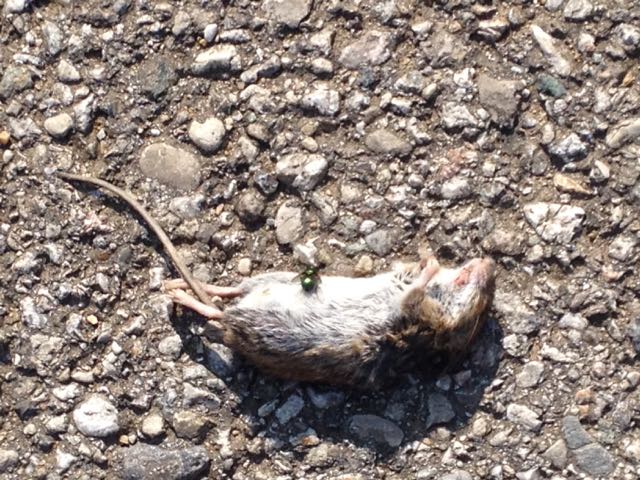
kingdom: Animalia
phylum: Chordata
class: Mammalia
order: Rodentia
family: Muridae
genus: Apodemus
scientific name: Apodemus
